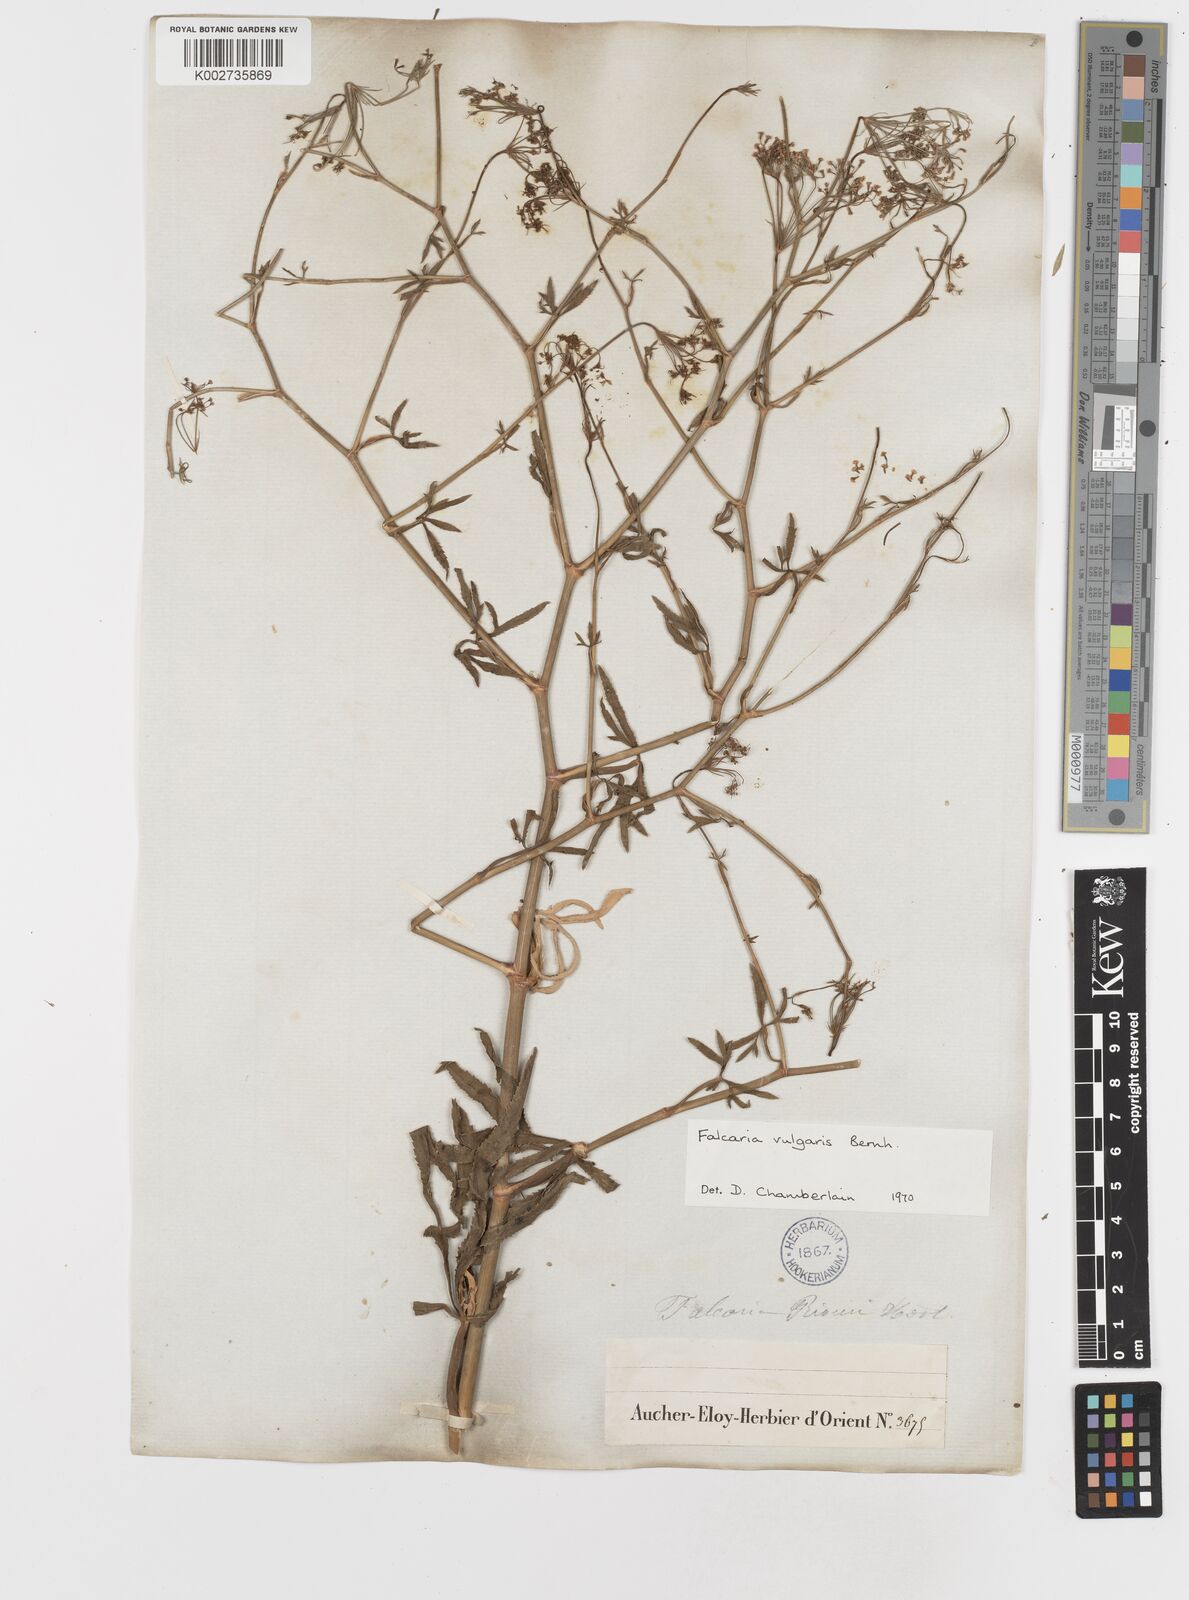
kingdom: Plantae
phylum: Tracheophyta
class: Magnoliopsida
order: Apiales
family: Apiaceae
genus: Falcaria
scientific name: Falcaria vulgaris
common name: Longleaf
